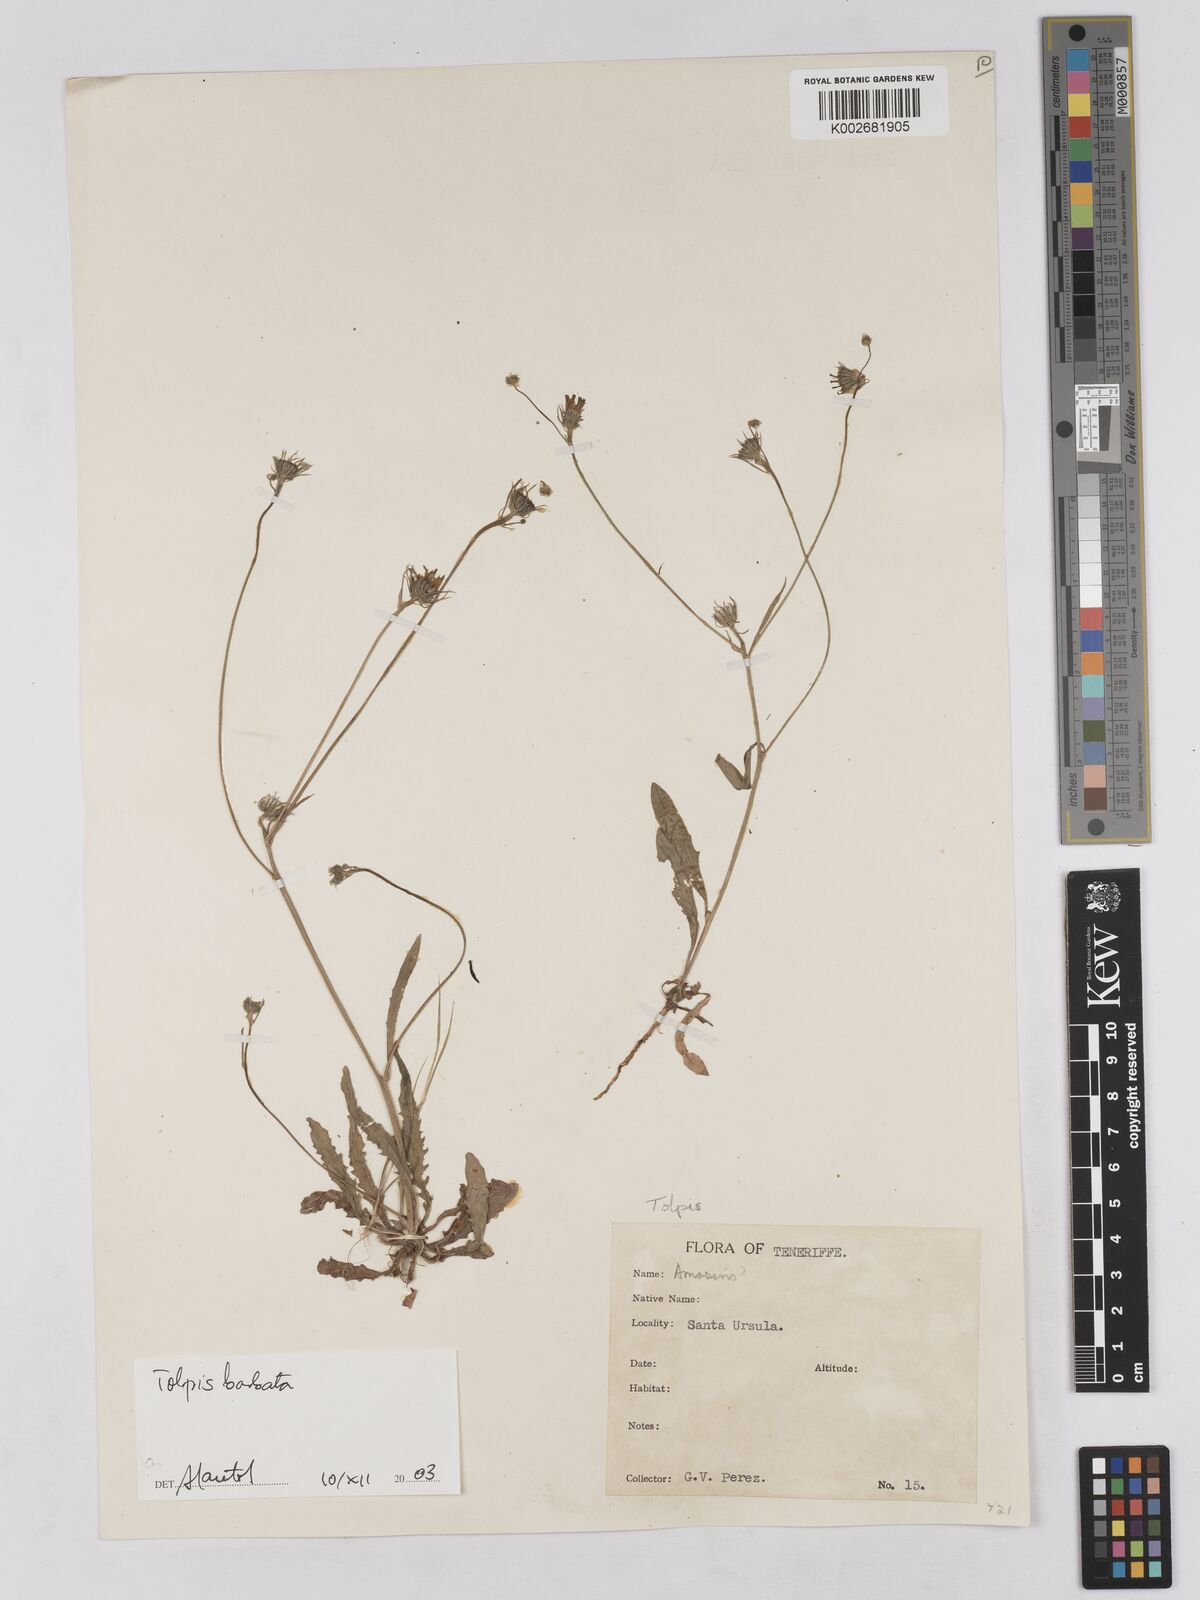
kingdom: Plantae
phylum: Tracheophyta
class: Magnoliopsida
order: Asterales
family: Asteraceae
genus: Tolpis
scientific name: Tolpis
